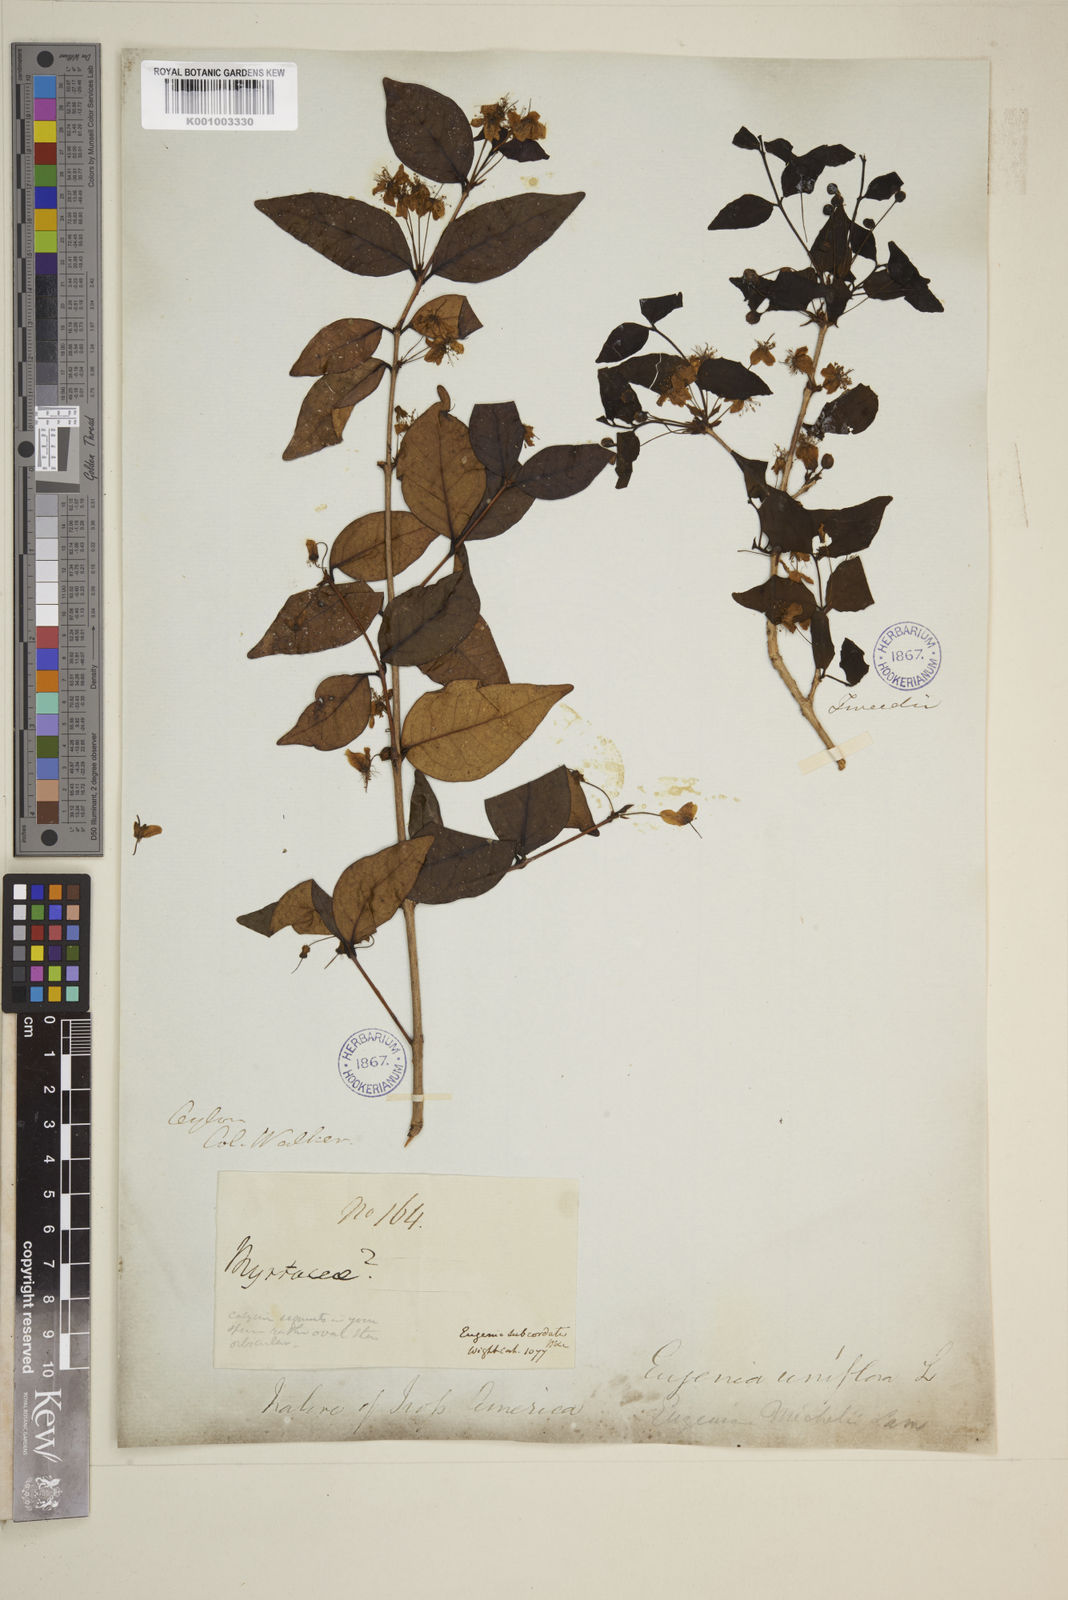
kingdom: Plantae
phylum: Tracheophyta
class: Magnoliopsida
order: Myrtales
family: Myrtaceae
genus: Eugenia
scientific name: Eugenia uniflora
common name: Surinam cherry
